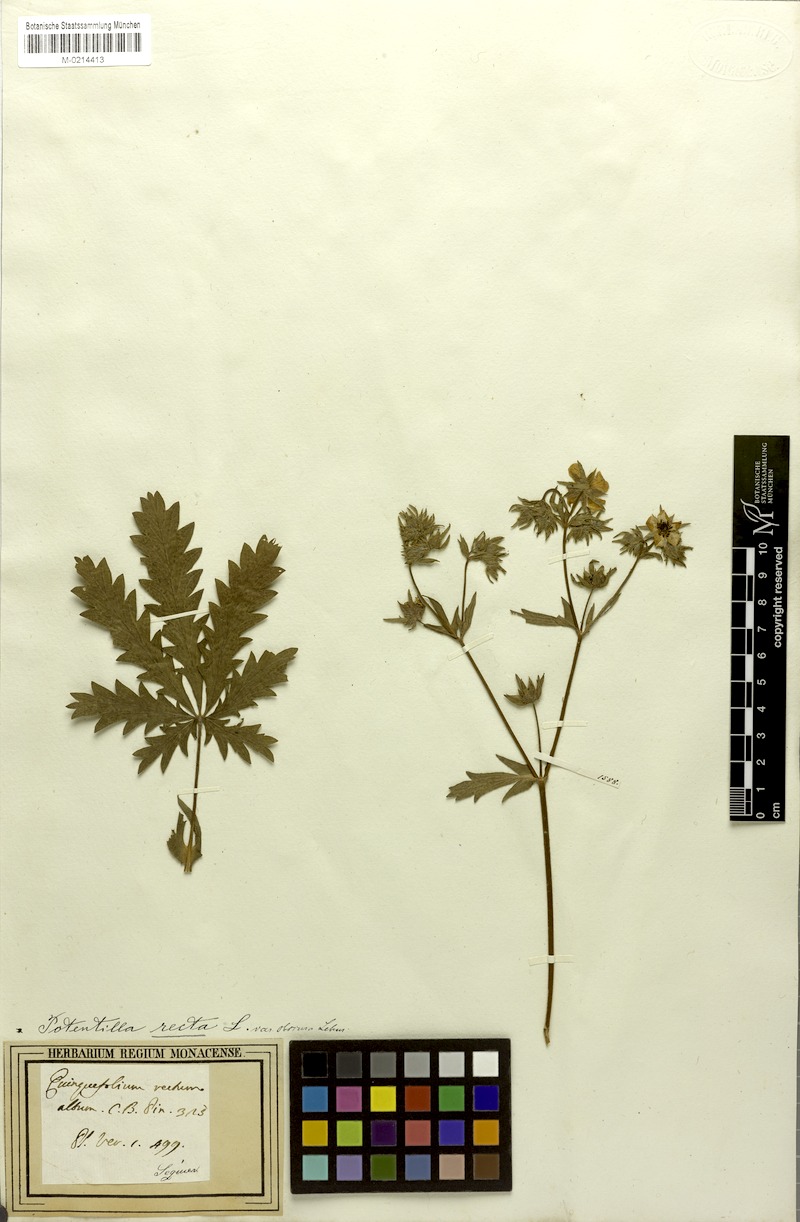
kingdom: Plantae
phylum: Tracheophyta
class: Magnoliopsida
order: Rosales
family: Rosaceae
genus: Potentilla
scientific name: Potentilla recta
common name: Sulphur cinquefoil
